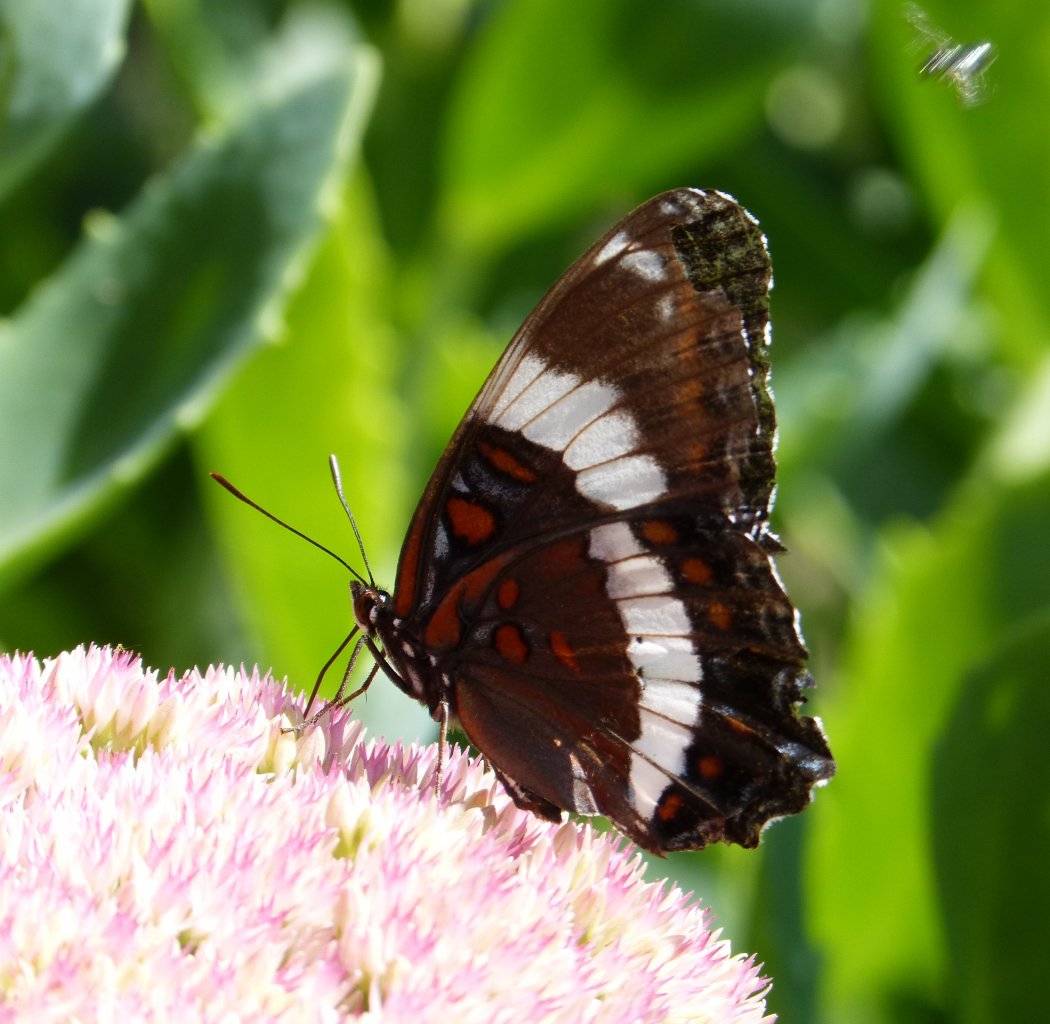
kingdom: Animalia
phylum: Arthropoda
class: Insecta
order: Lepidoptera
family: Nymphalidae
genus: Limenitis
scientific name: Limenitis arthemis
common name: Red-spotted Admiral
